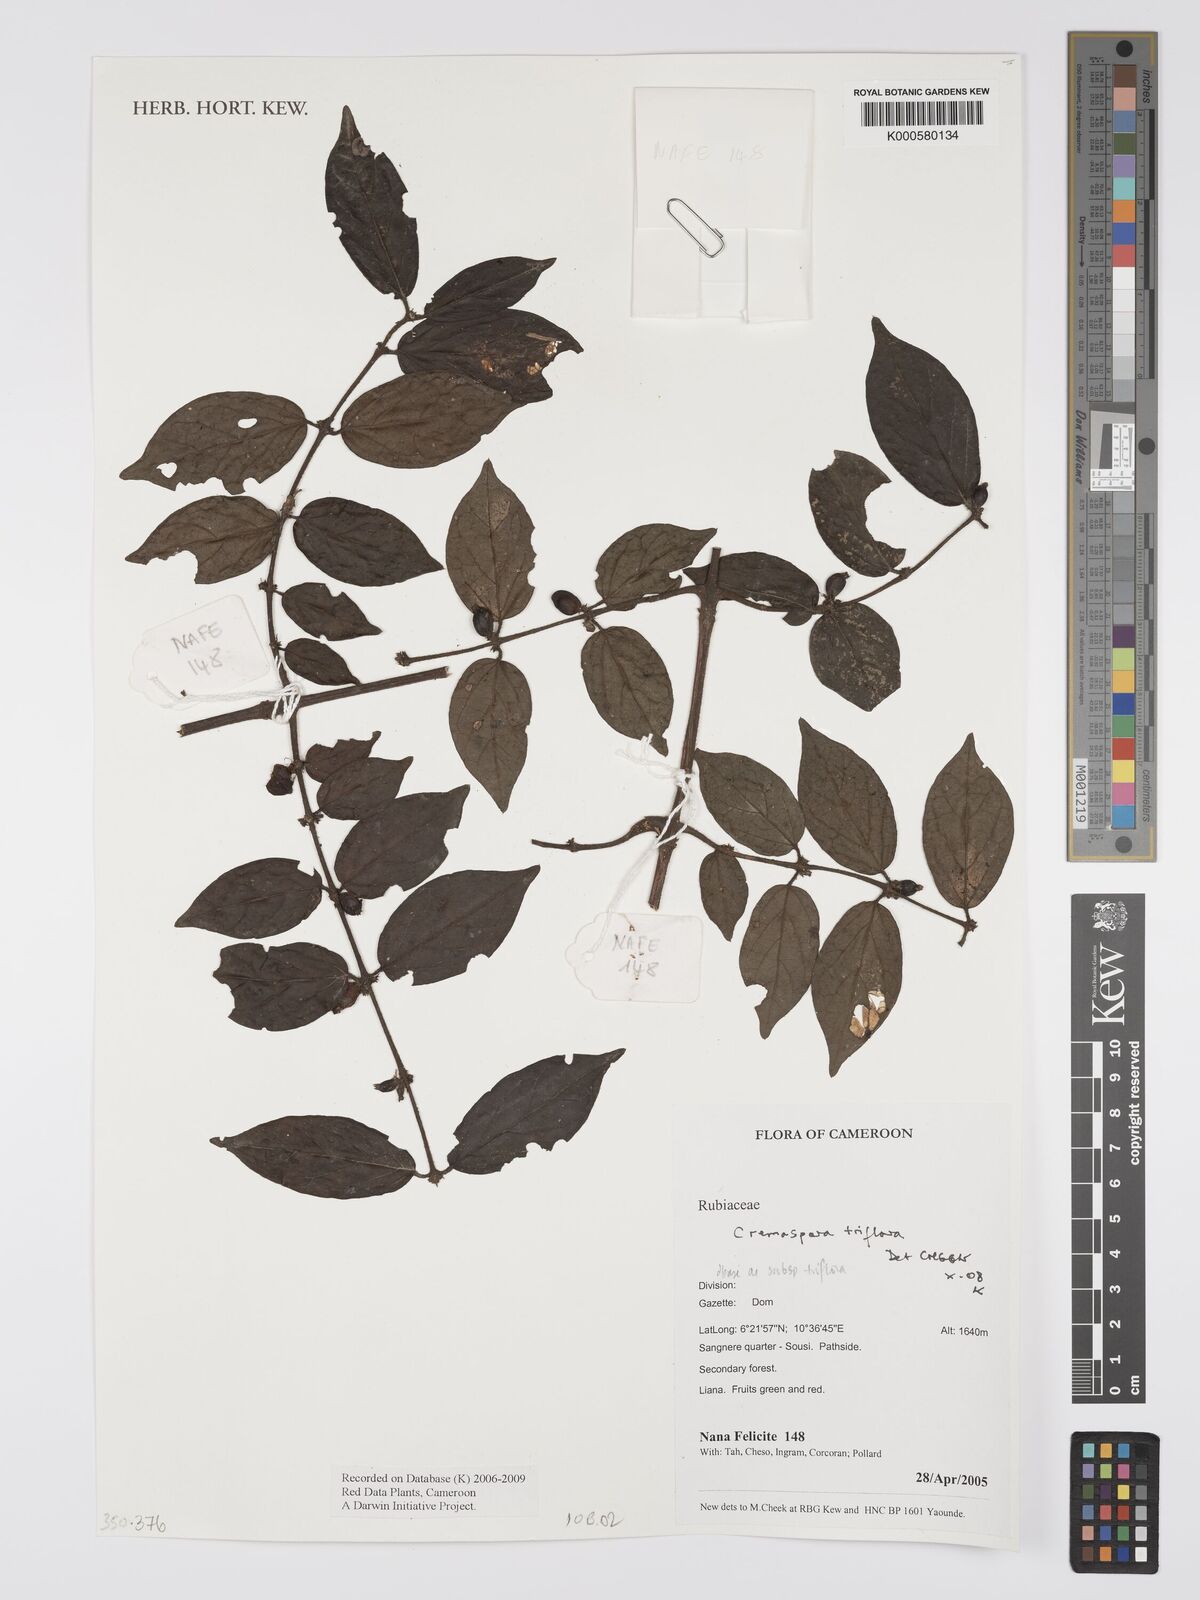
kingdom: Plantae
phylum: Tracheophyta
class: Magnoliopsida
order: Gentianales
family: Rubiaceae
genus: Cremaspora
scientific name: Cremaspora triflora
